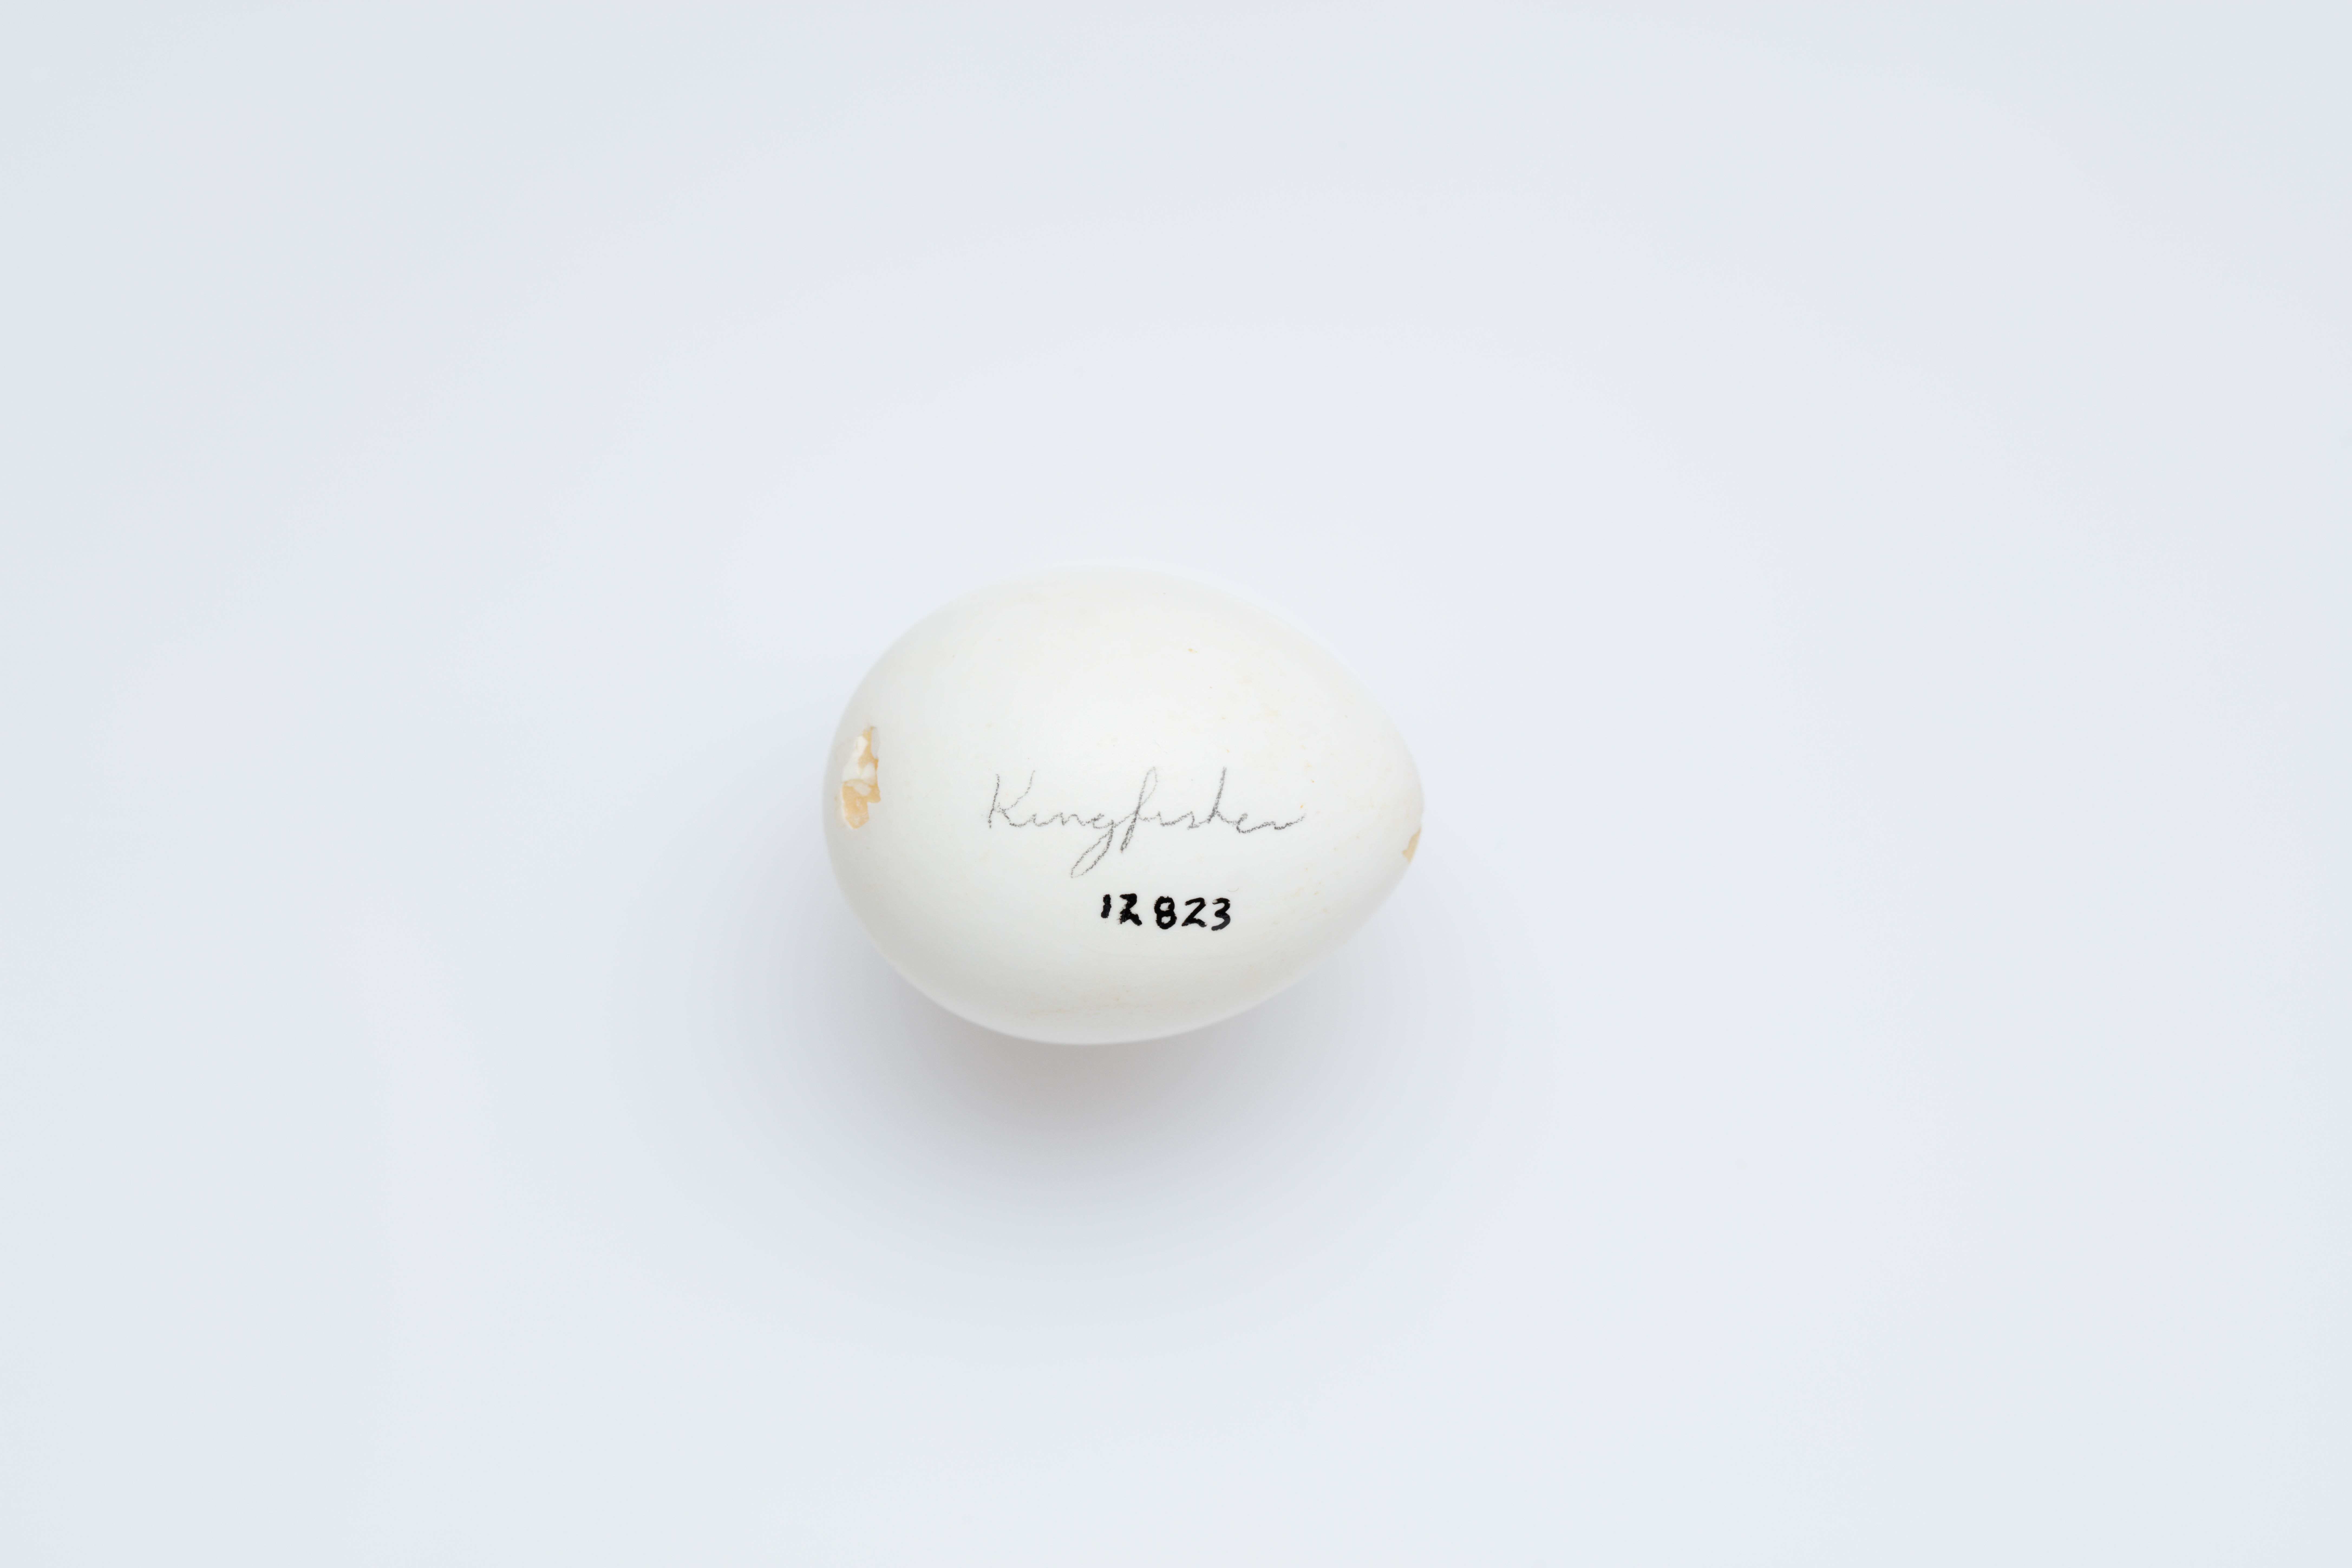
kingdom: Animalia
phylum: Chordata
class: Aves
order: Coraciiformes
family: Alcedinidae
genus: Todiramphus
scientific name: Todiramphus sanctus
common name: Sacred kingfisher
